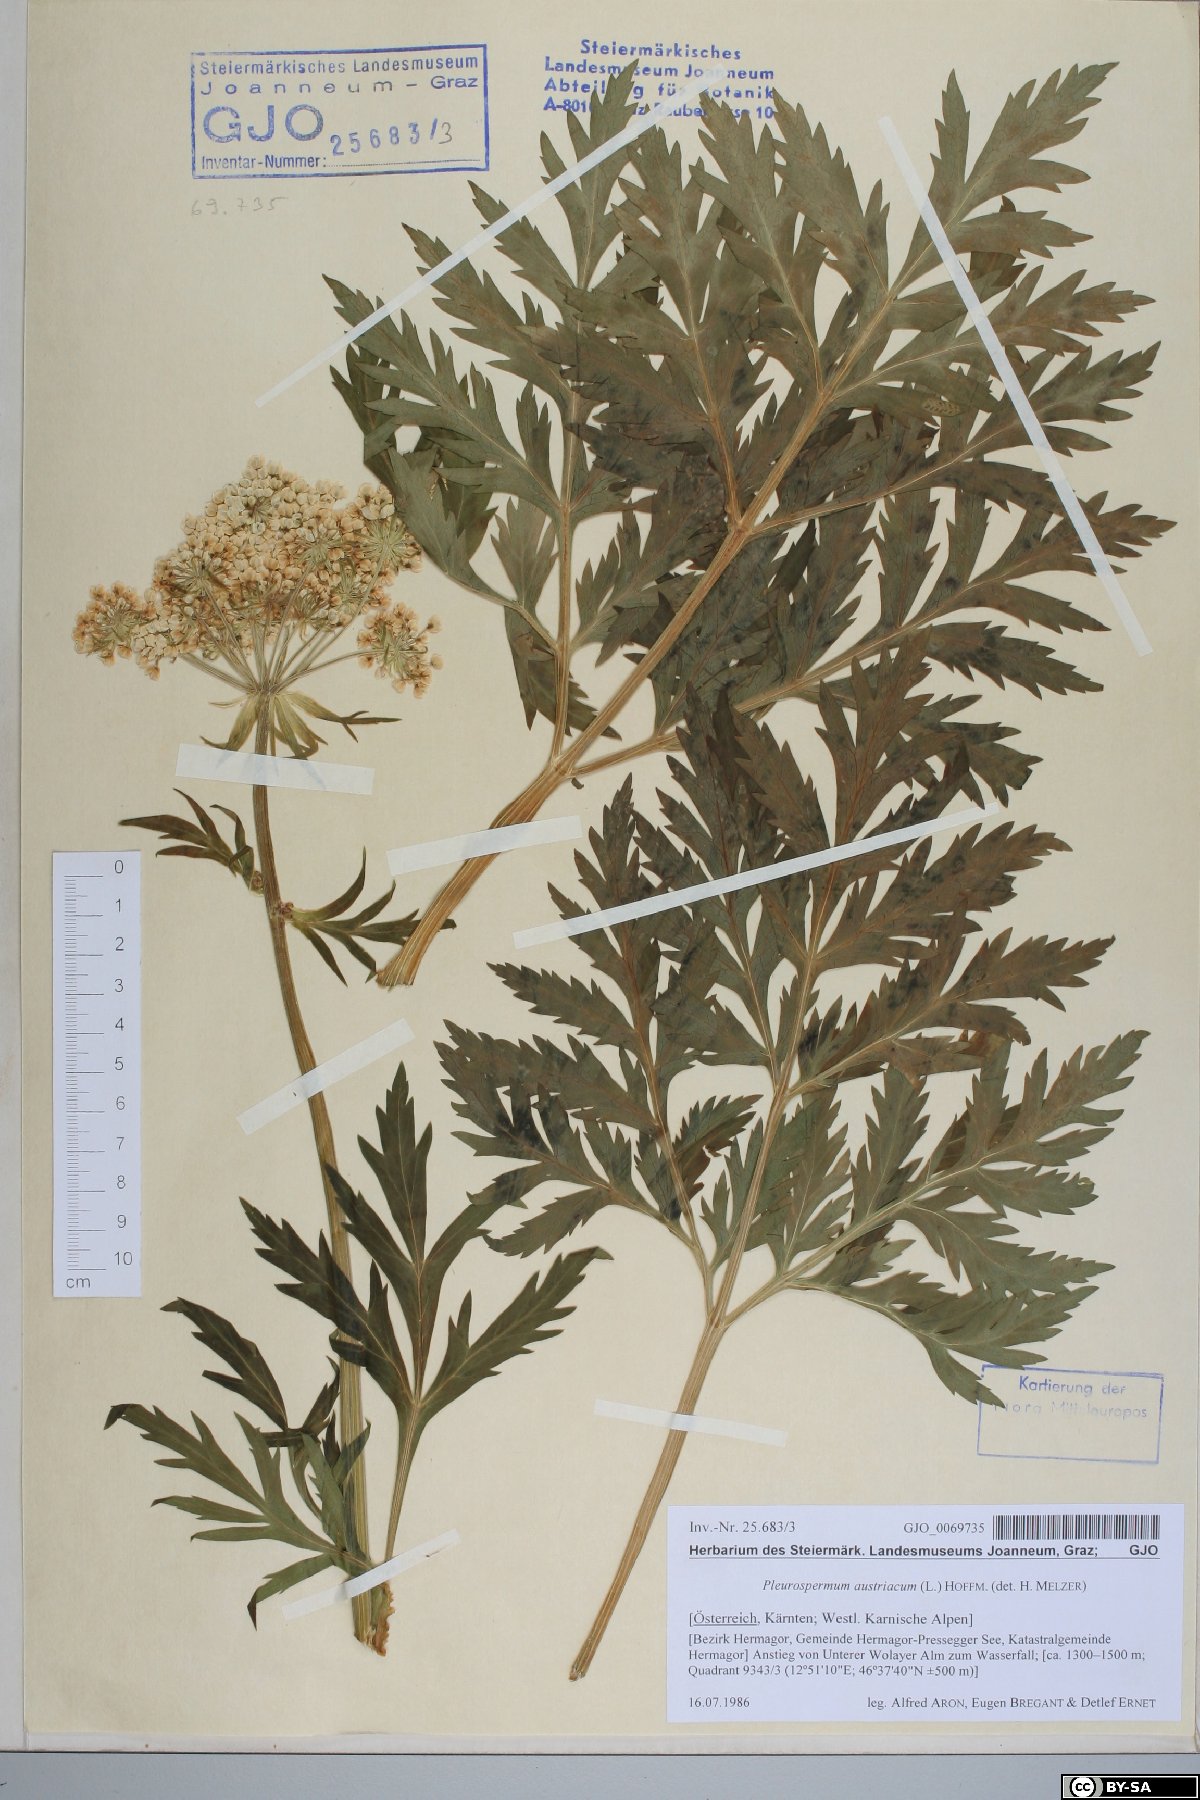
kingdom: Plantae
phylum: Tracheophyta
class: Magnoliopsida
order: Apiales
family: Apiaceae
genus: Pleurospermum
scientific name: Pleurospermum austriacum
